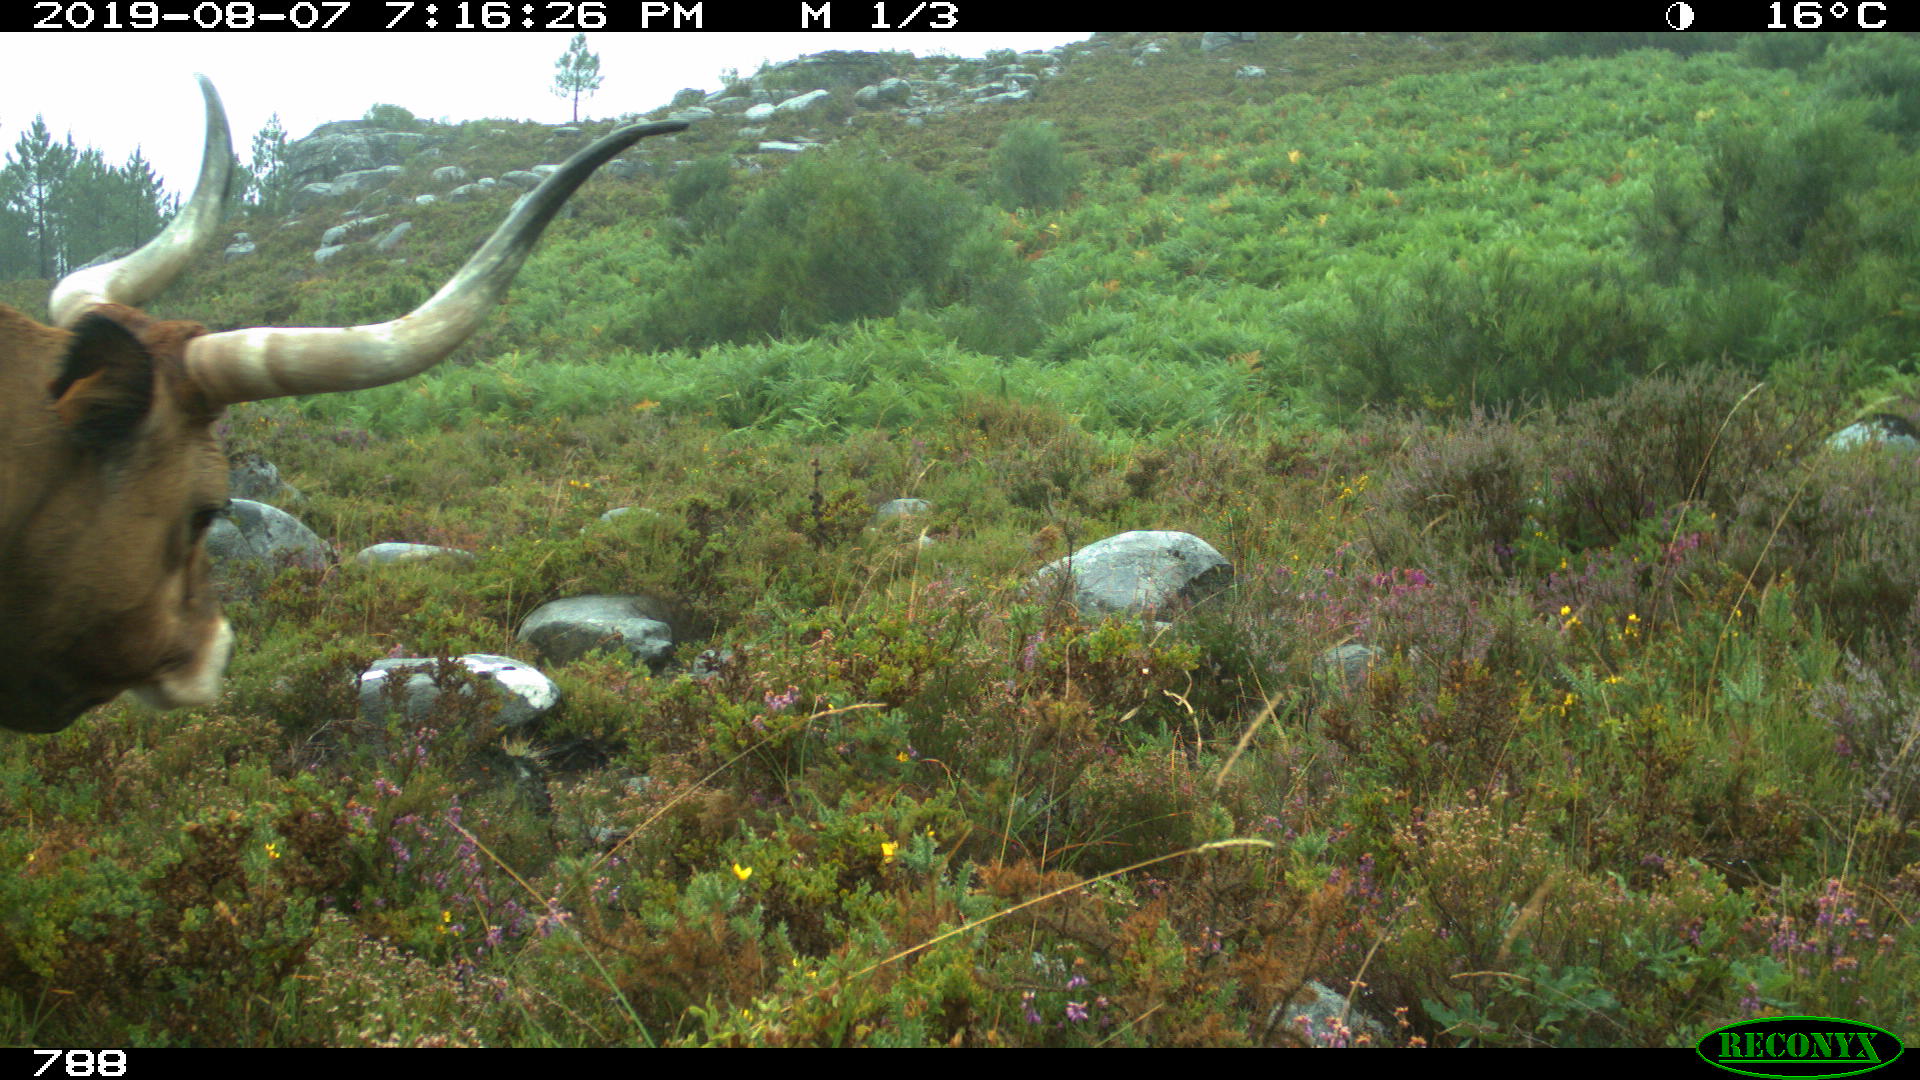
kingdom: Animalia
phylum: Chordata
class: Mammalia
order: Artiodactyla
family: Bovidae
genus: Bos
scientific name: Bos taurus
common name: Domesticated cattle
